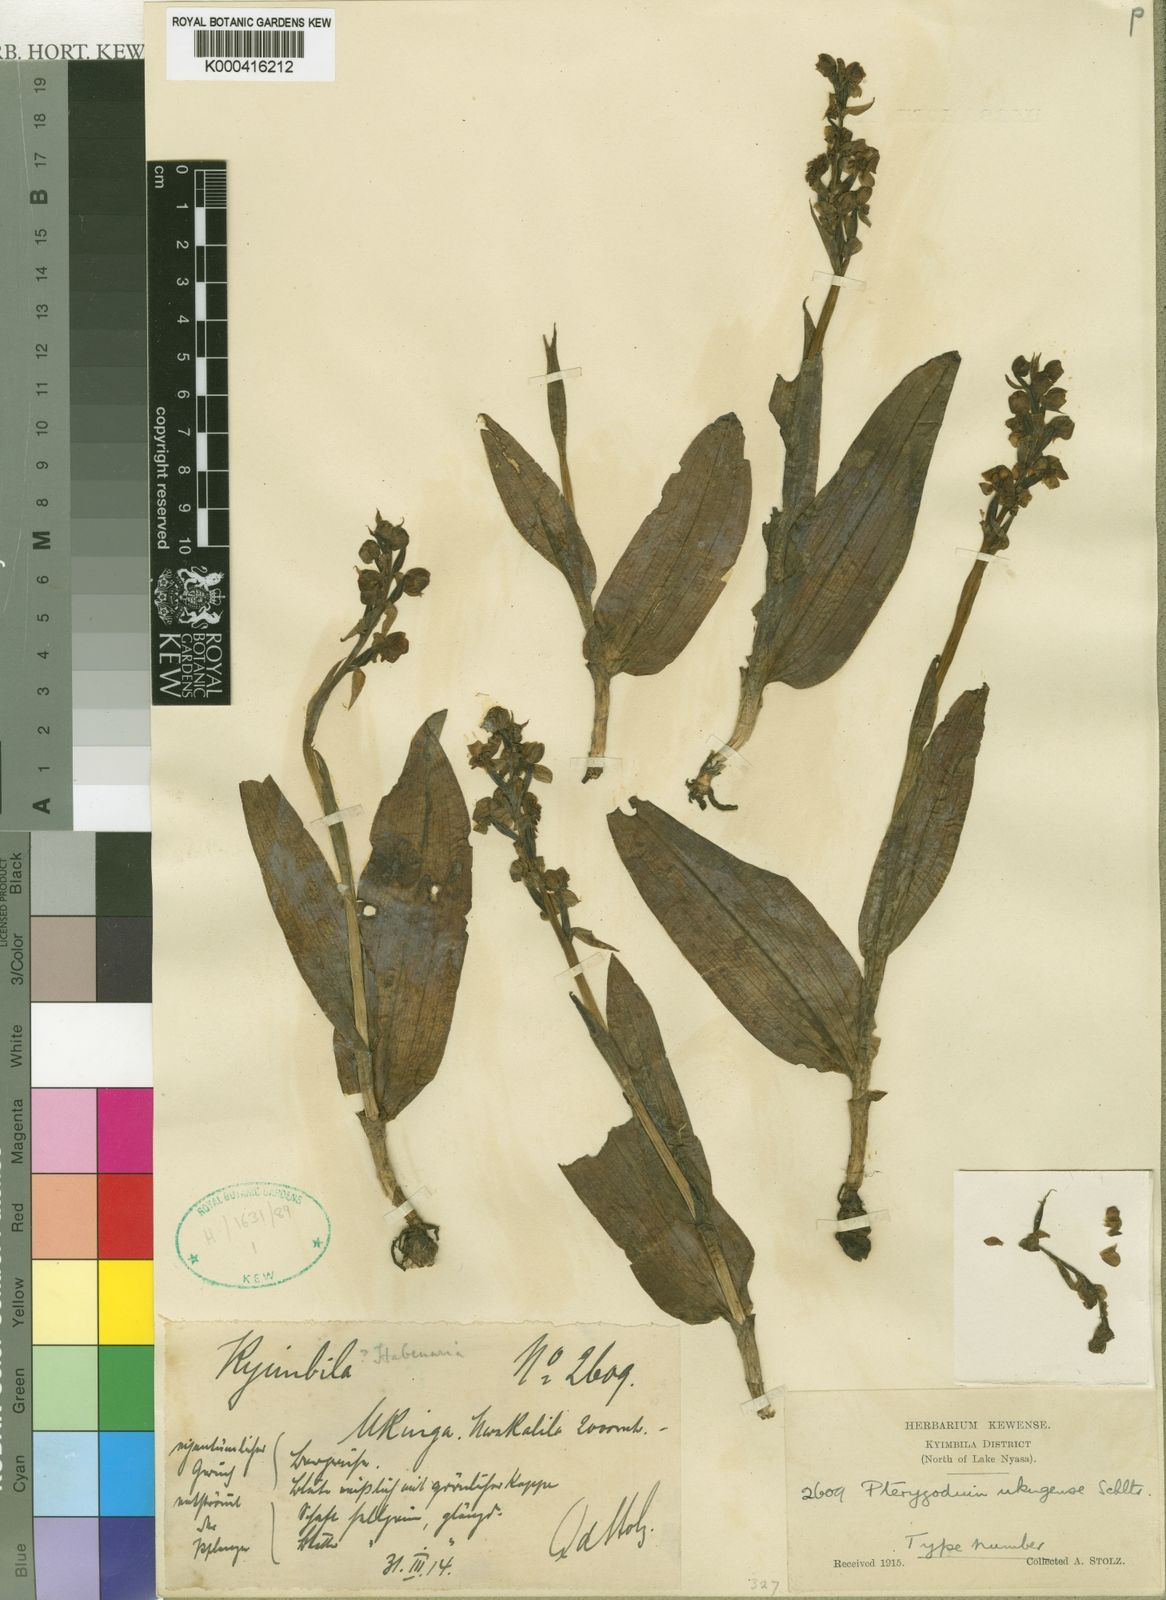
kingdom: Plantae
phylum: Tracheophyta
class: Liliopsida
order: Asparagales
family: Orchidaceae
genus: Pterygodium
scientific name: Pterygodium ukingense
